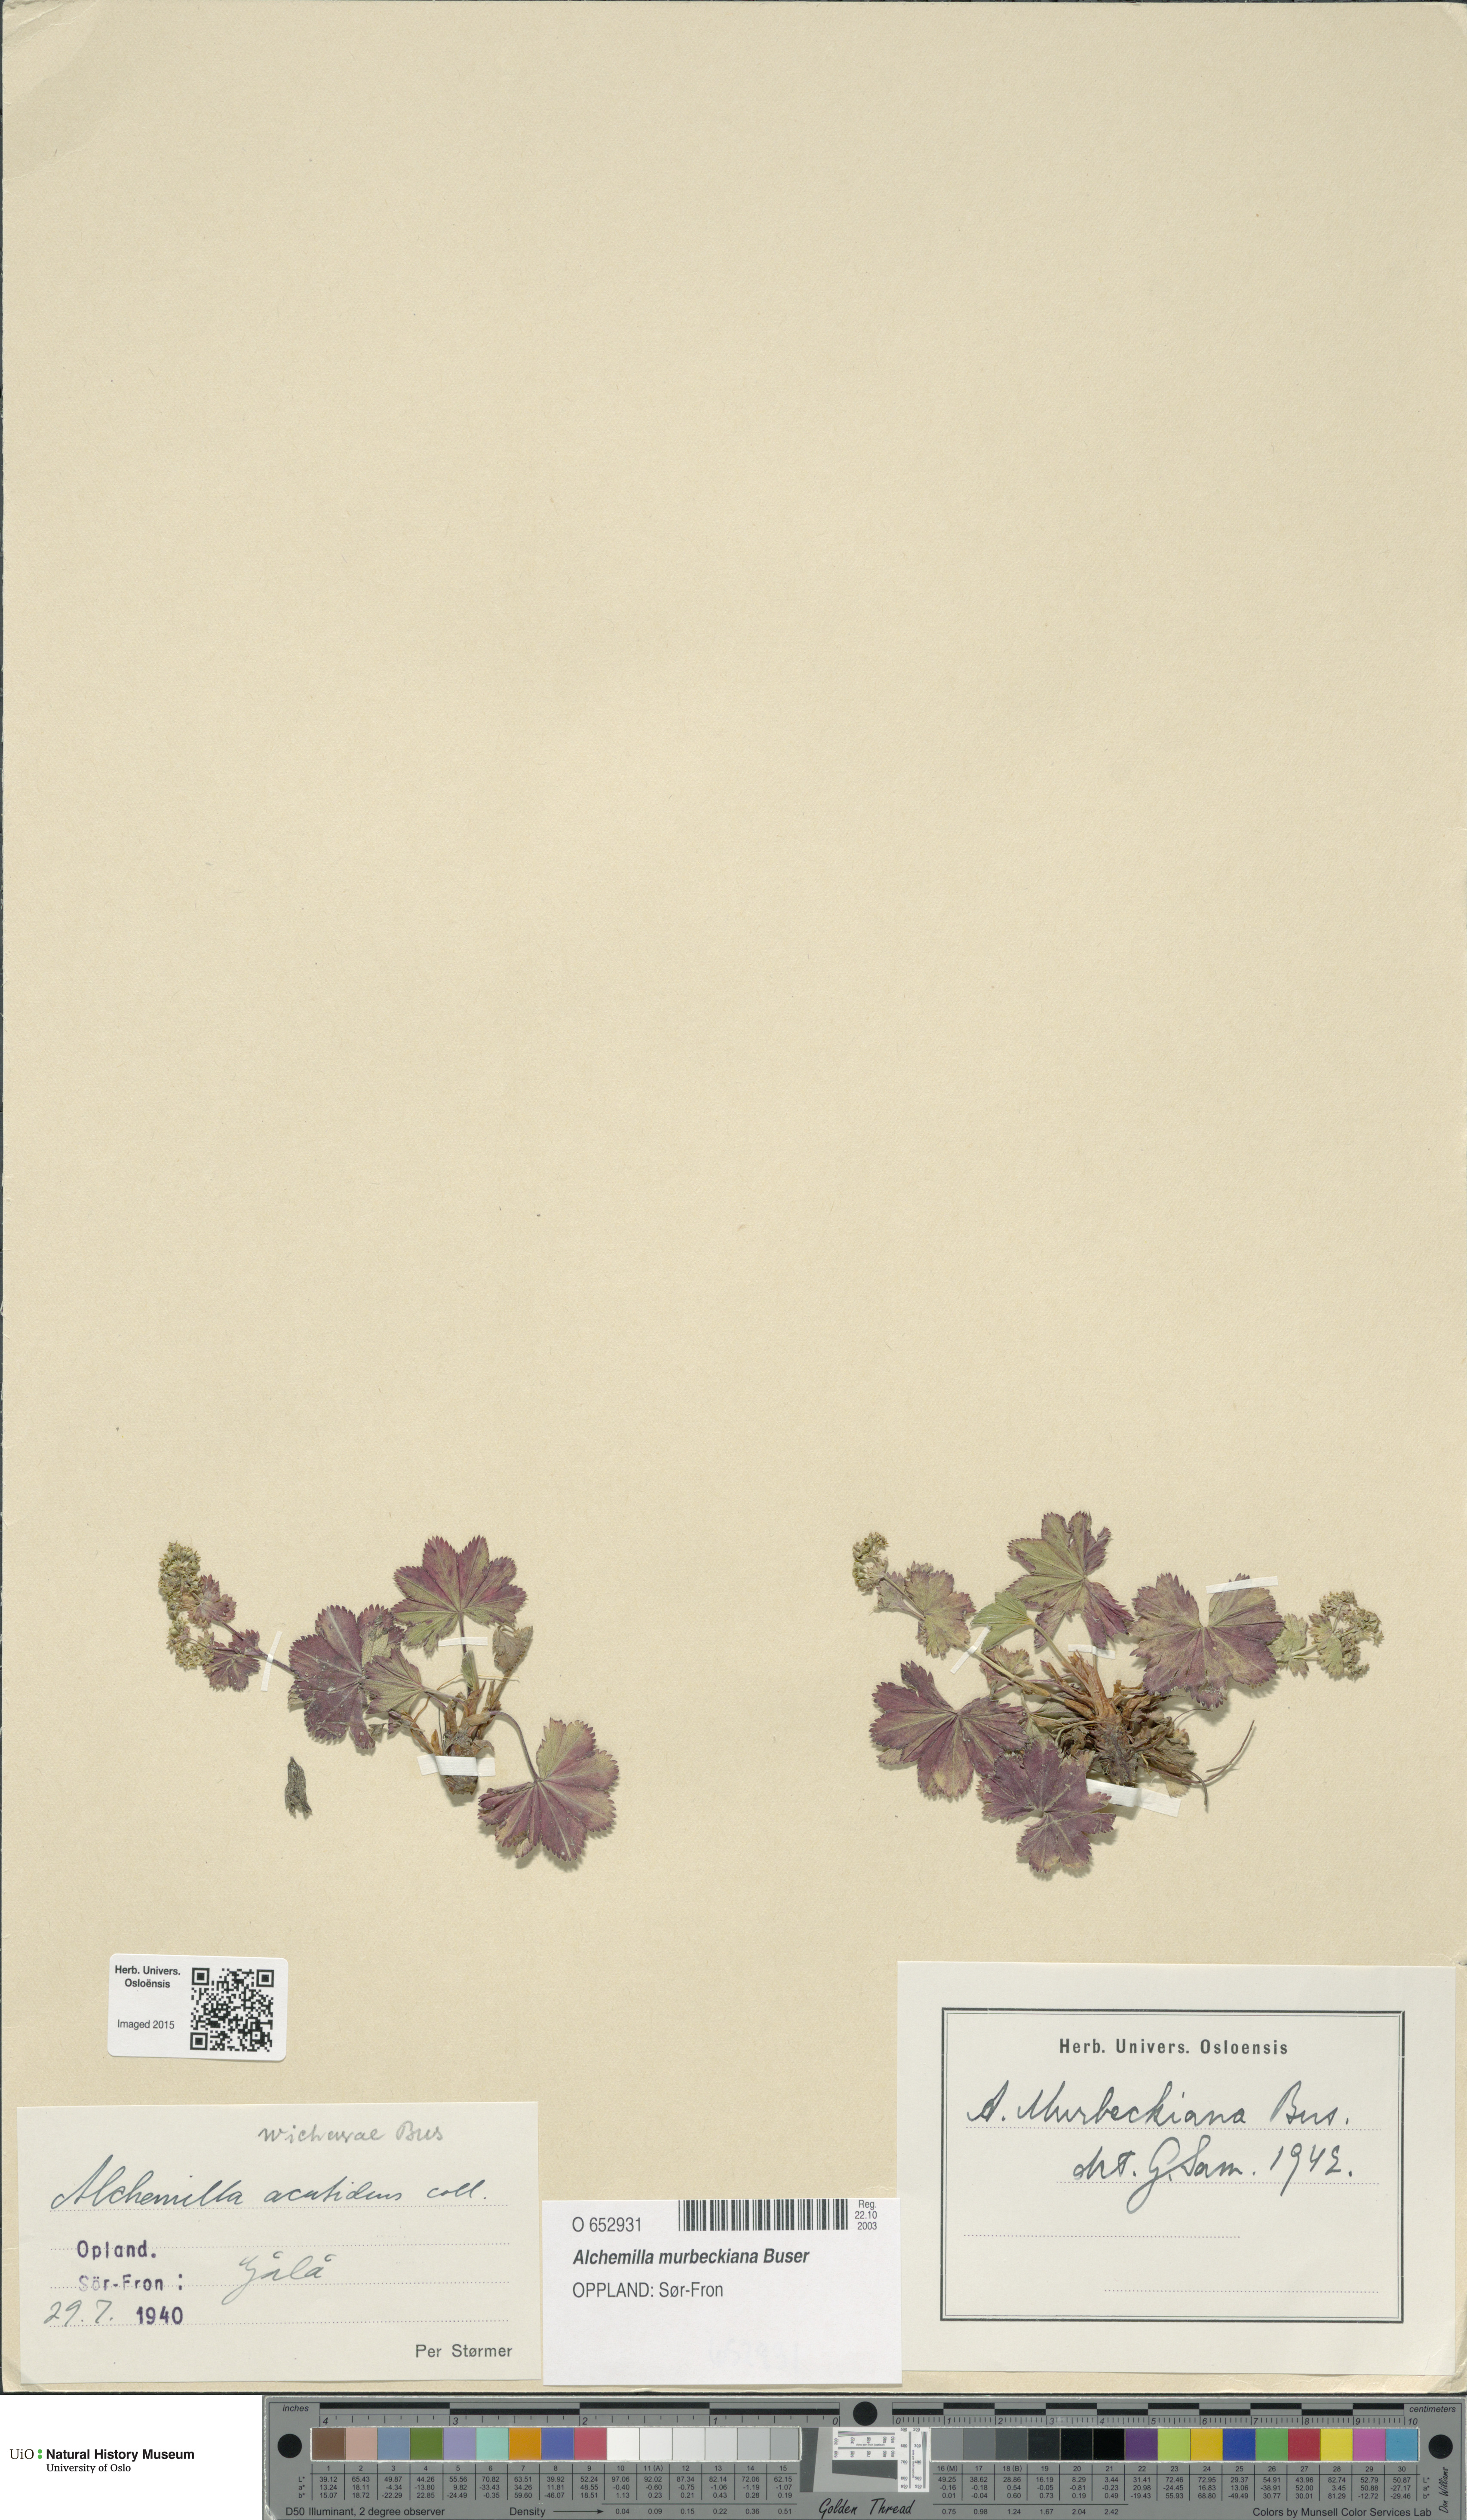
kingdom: Plantae
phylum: Tracheophyta
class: Magnoliopsida
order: Rosales
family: Rosaceae
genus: Alchemilla
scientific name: Alchemilla murbeckiana
